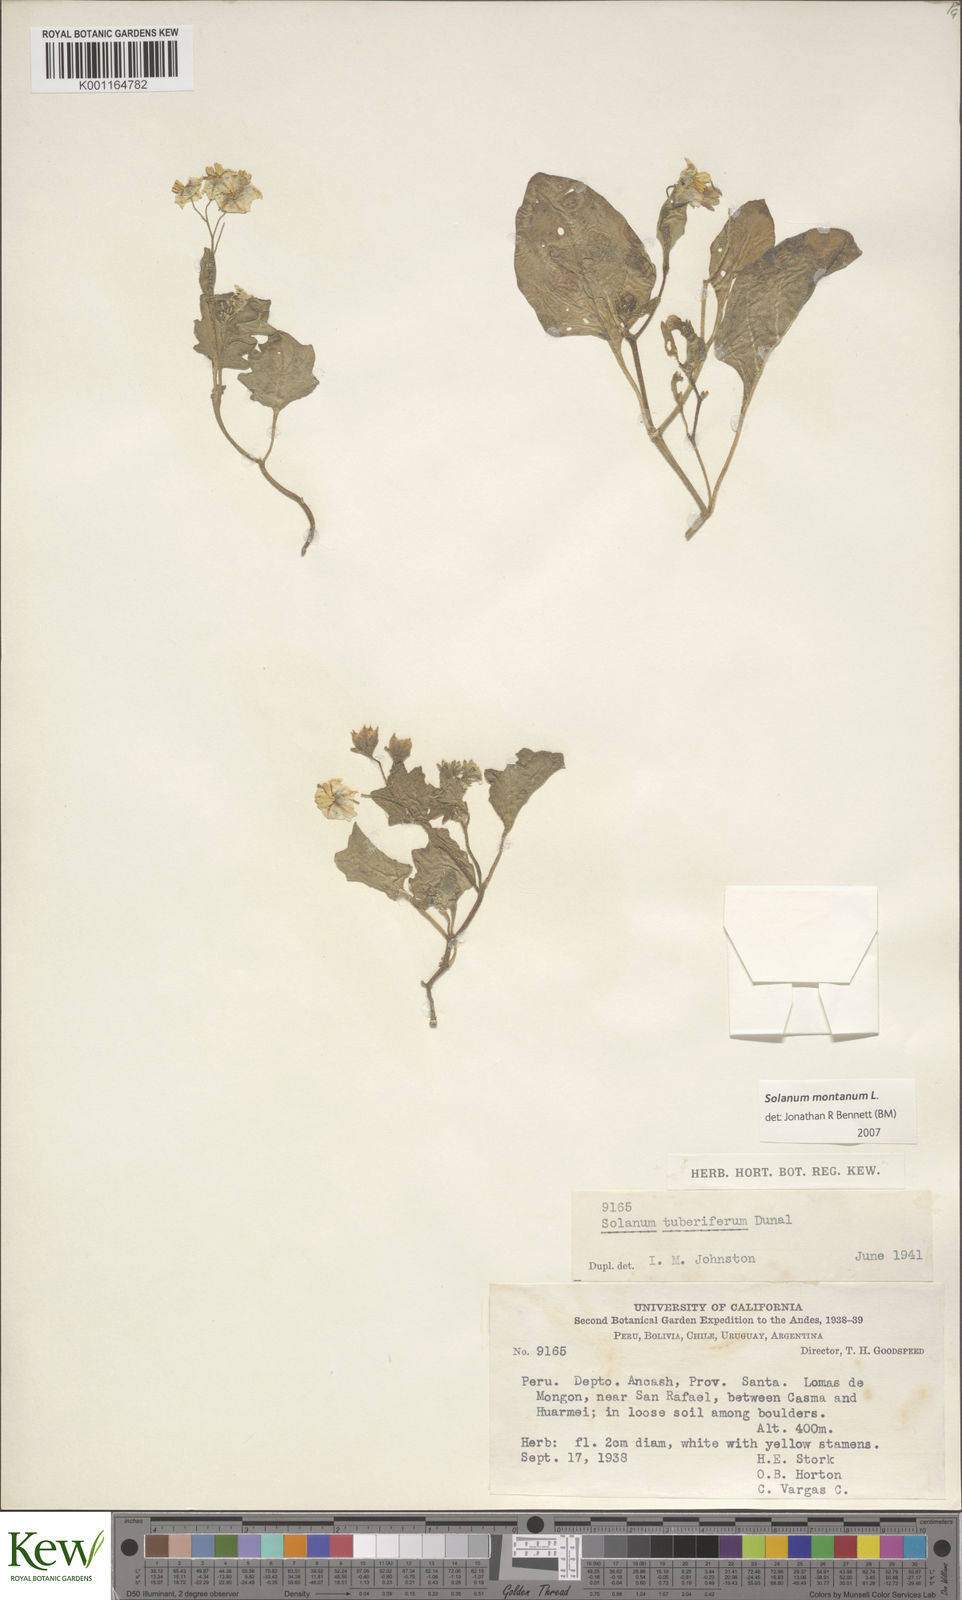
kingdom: Plantae
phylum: Tracheophyta
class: Magnoliopsida
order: Solanales
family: Solanaceae
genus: Solanum
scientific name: Solanum montanum
